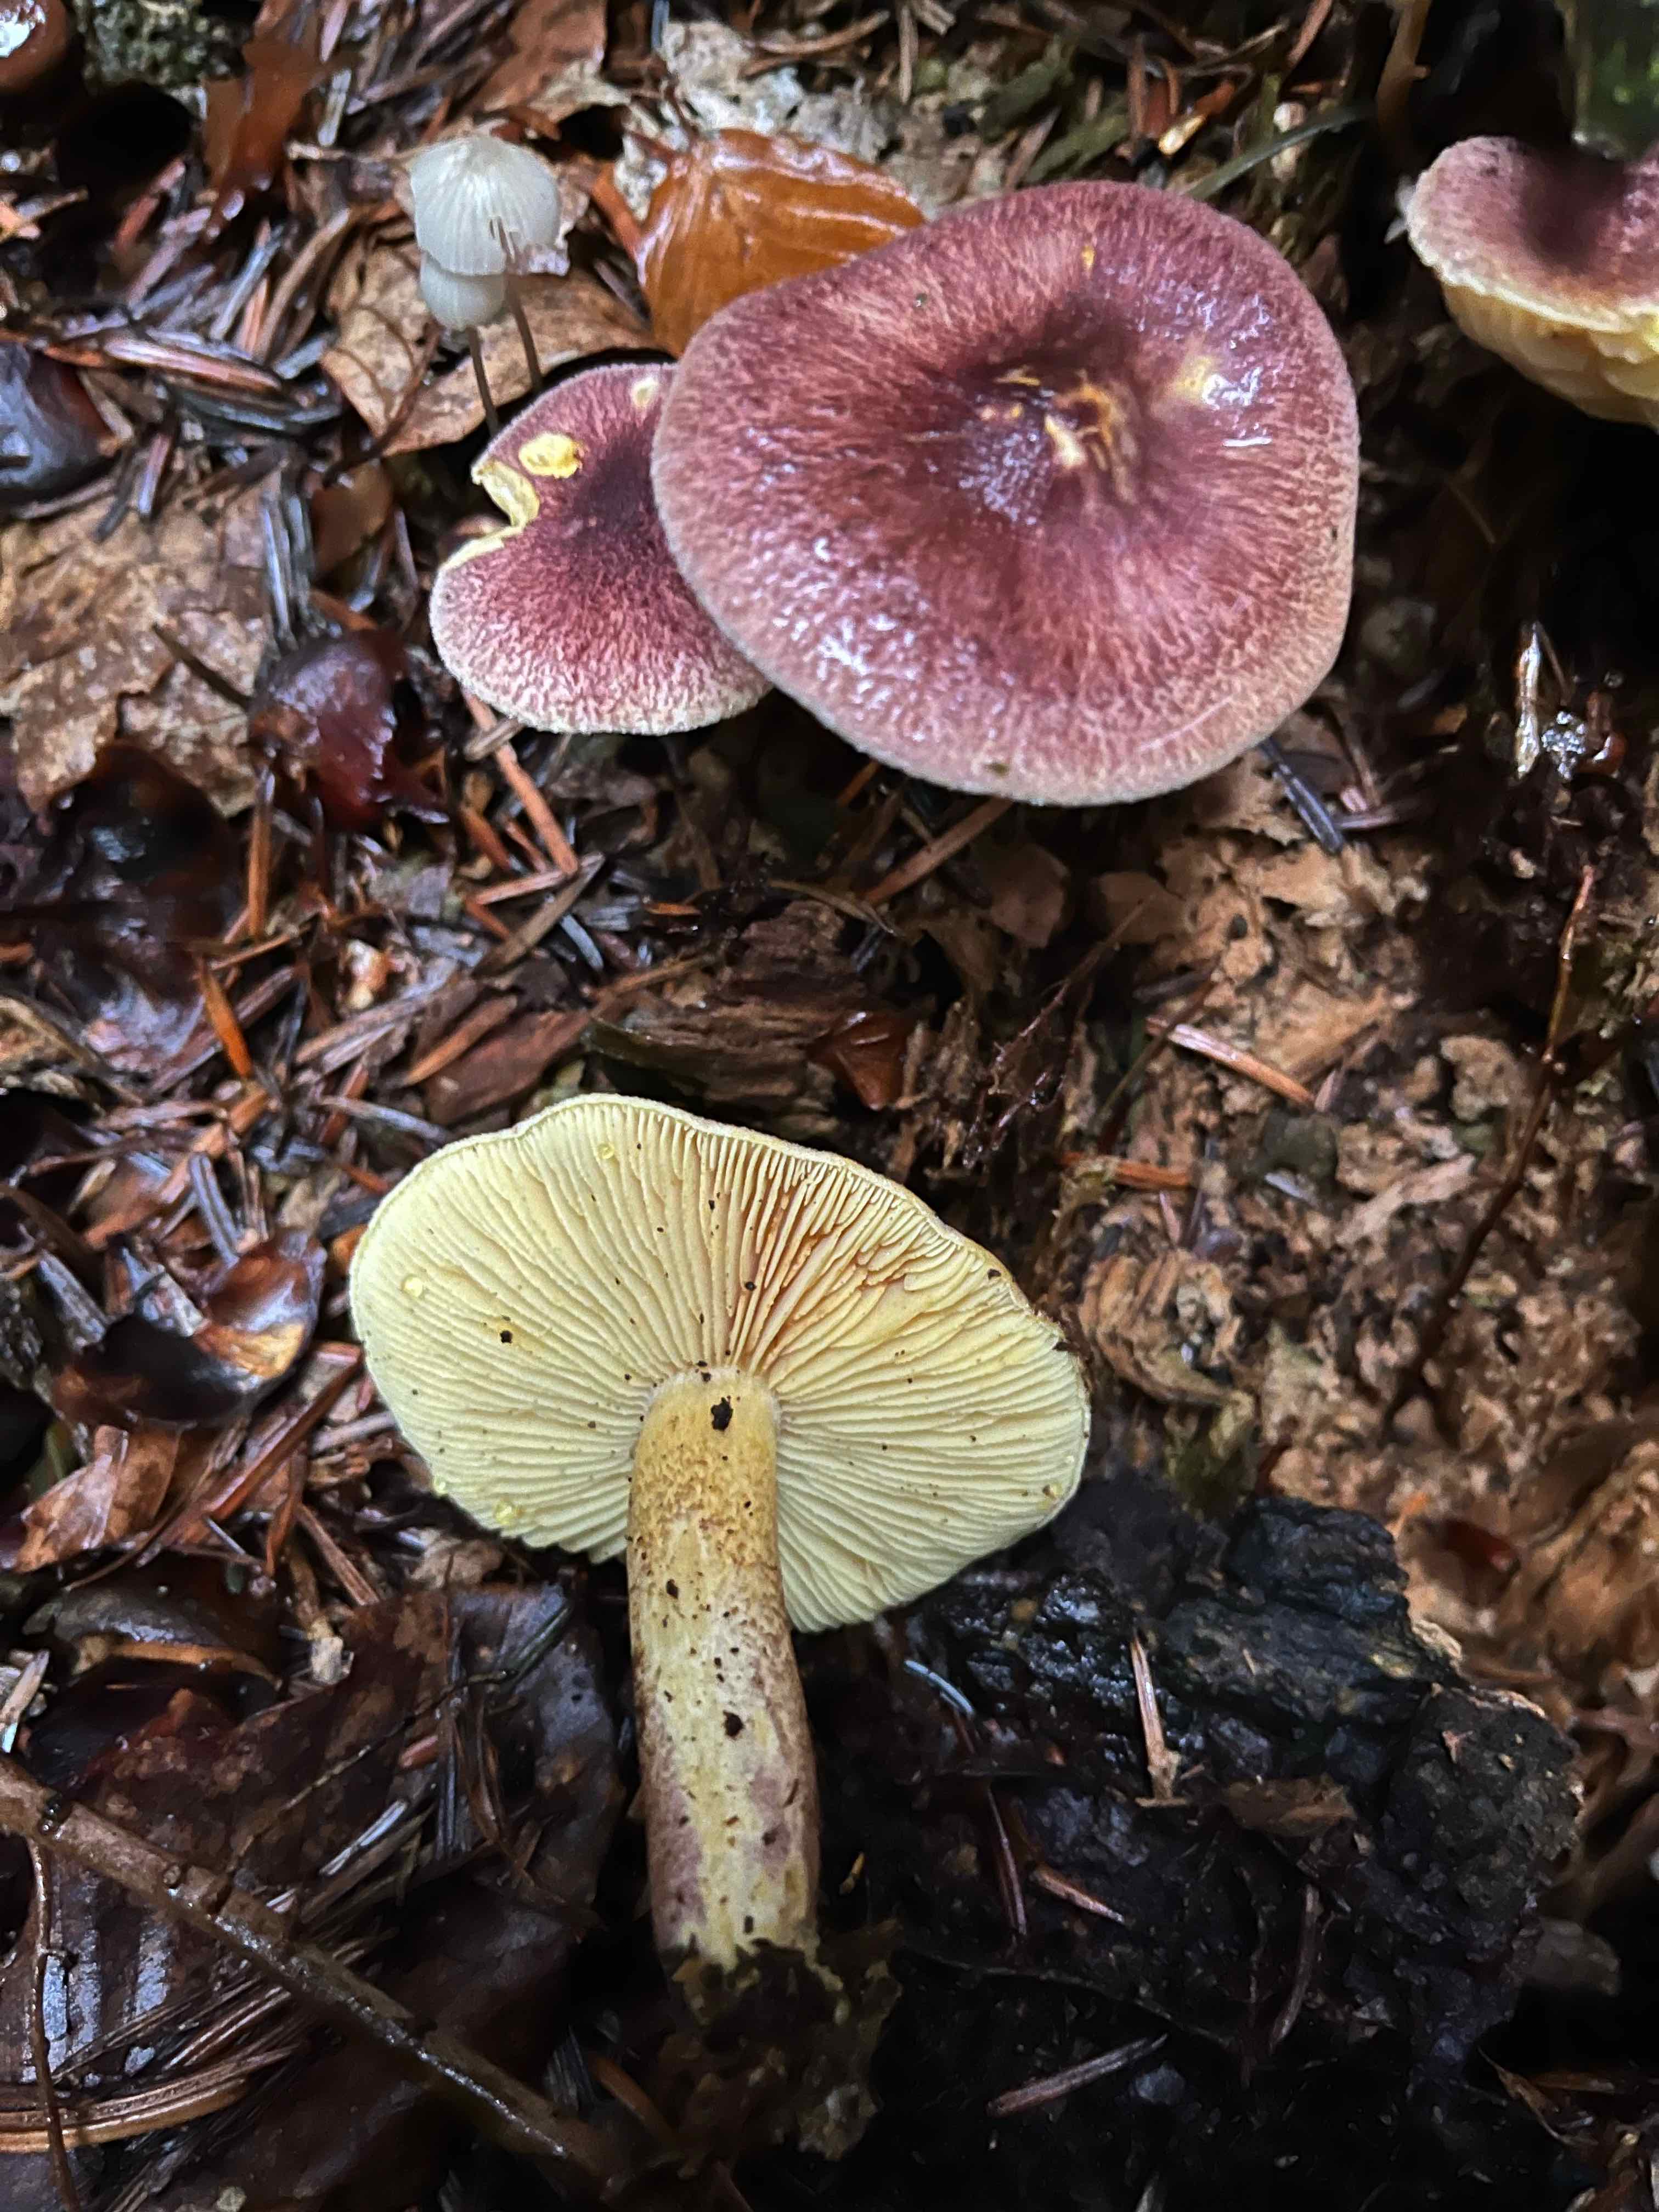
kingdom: Fungi
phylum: Basidiomycota
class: Agaricomycetes
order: Agaricales
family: Tricholomataceae
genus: Tricholomopsis
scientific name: Tricholomopsis rutilans
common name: purpur-væbnerhat
